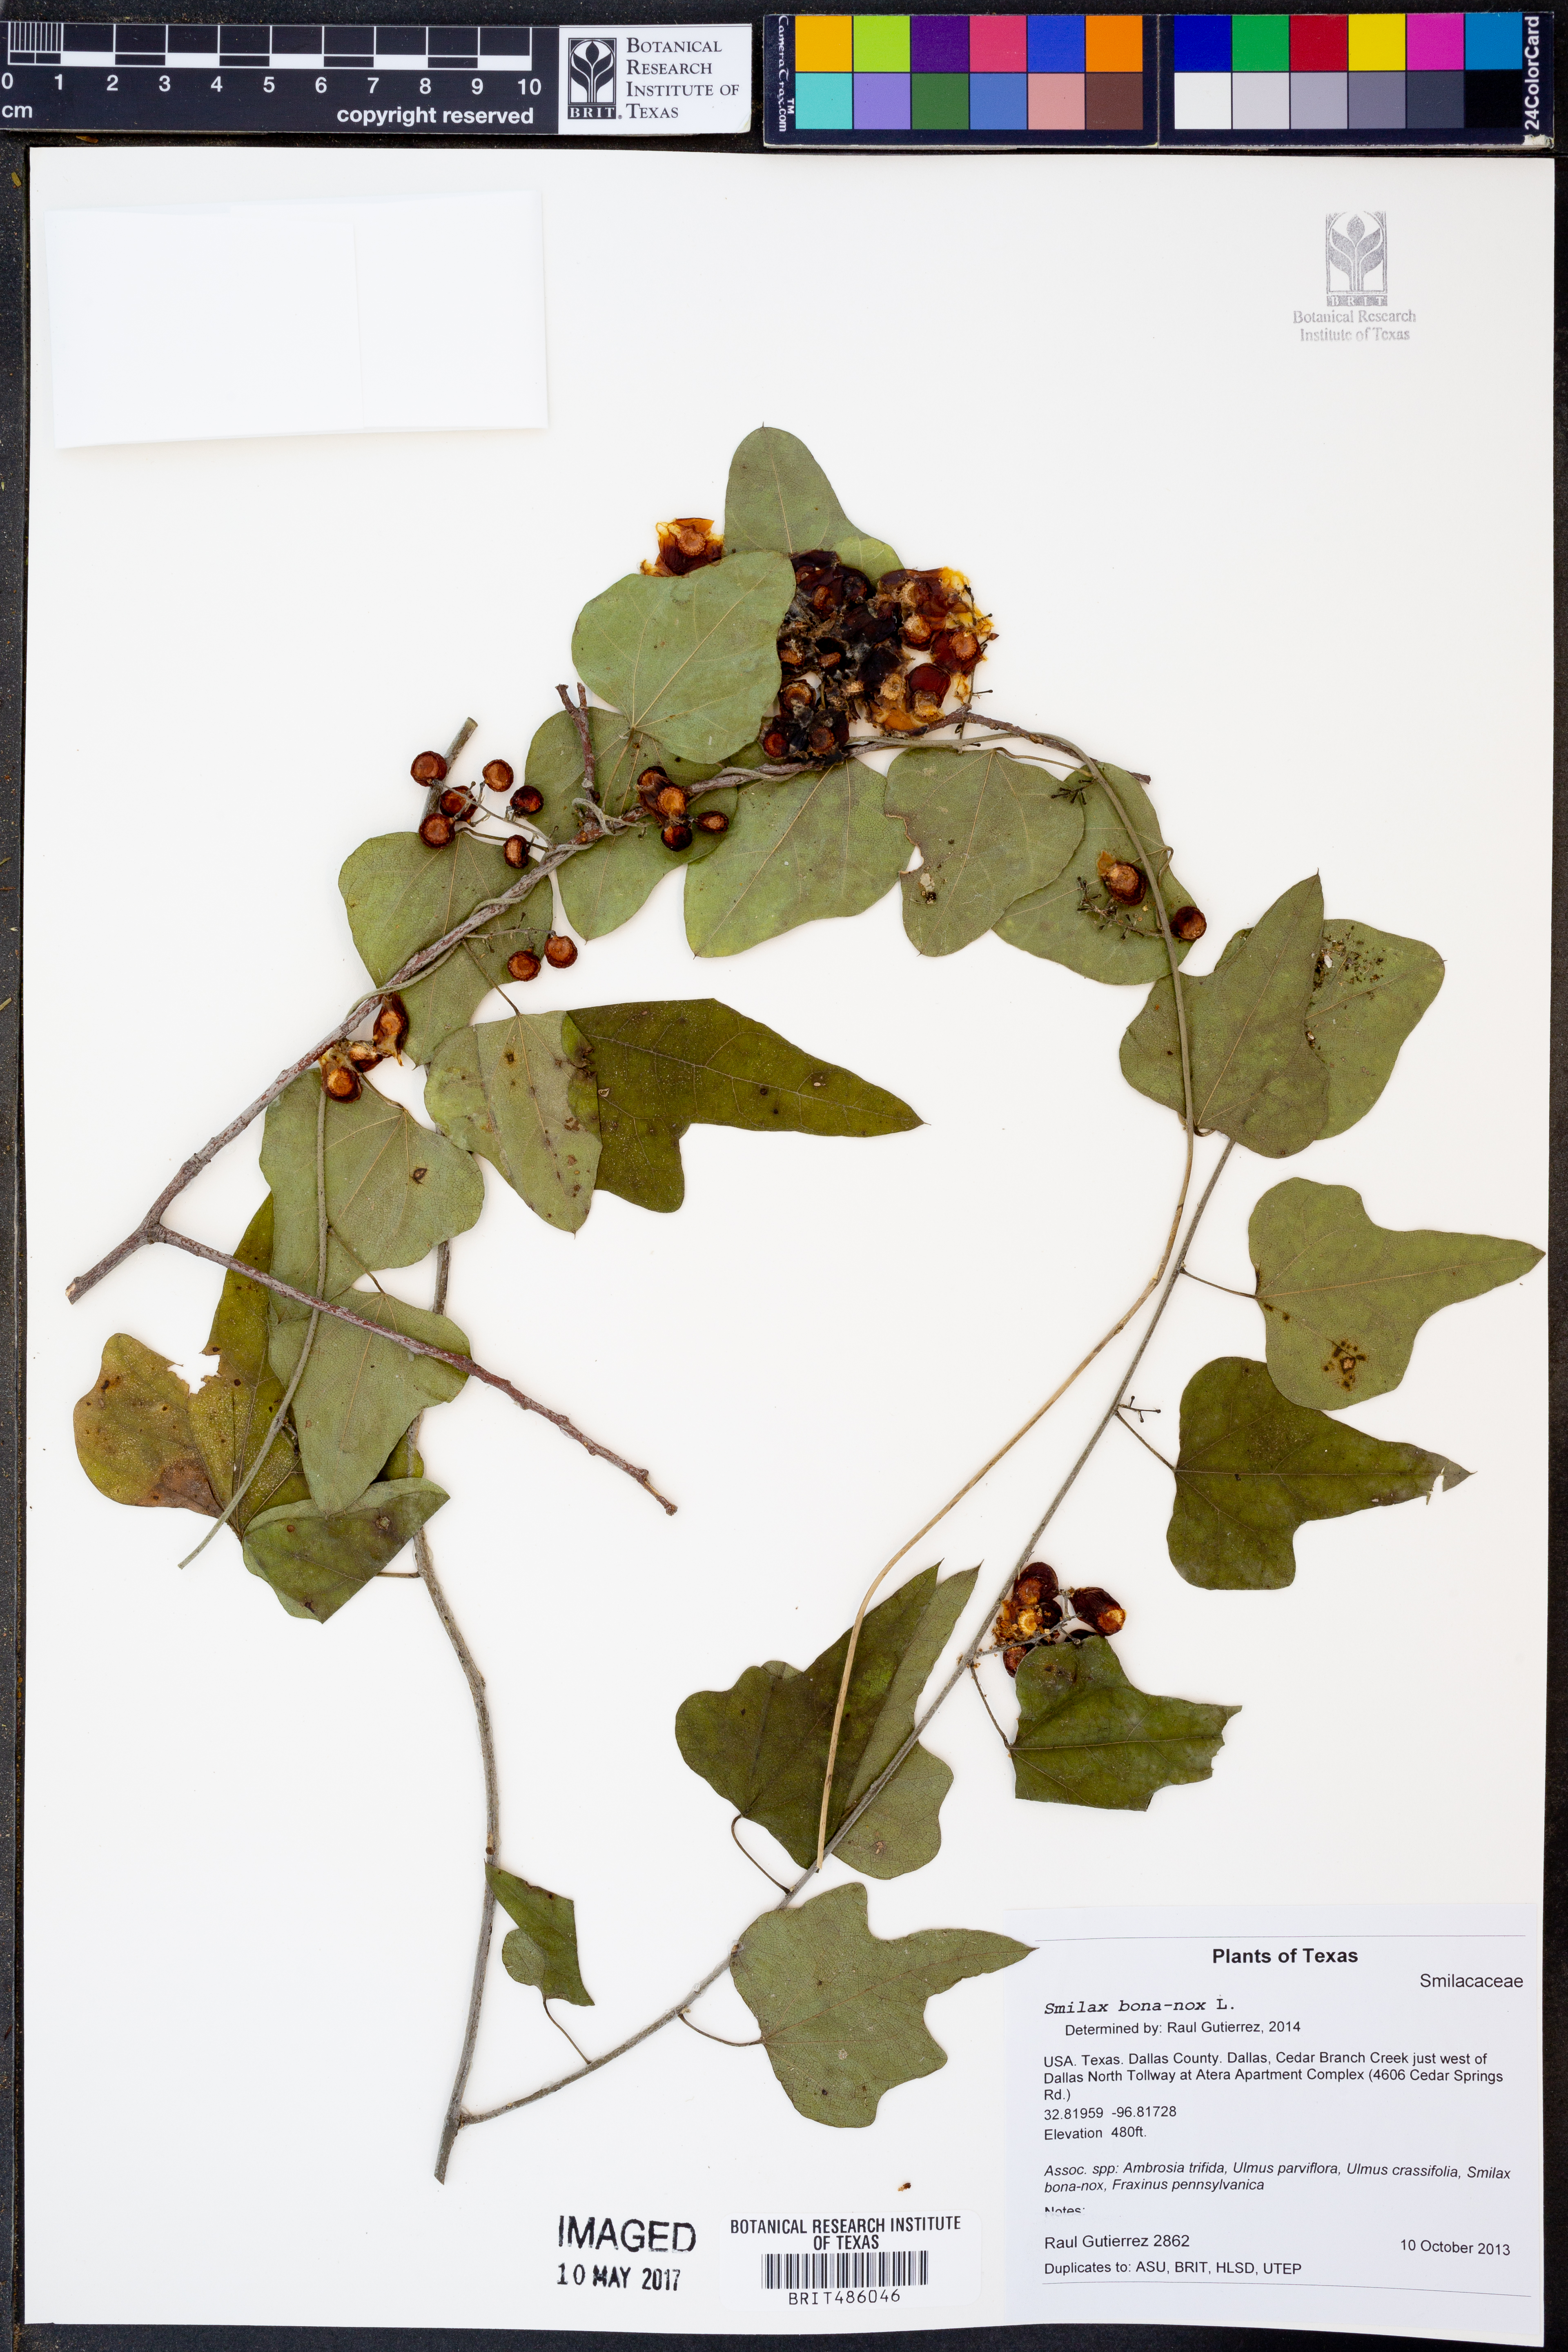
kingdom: Plantae
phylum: Tracheophyta
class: Liliopsida
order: Liliales
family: Smilacaceae
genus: Smilax
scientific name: Smilax bona-nox
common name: Catbrier
